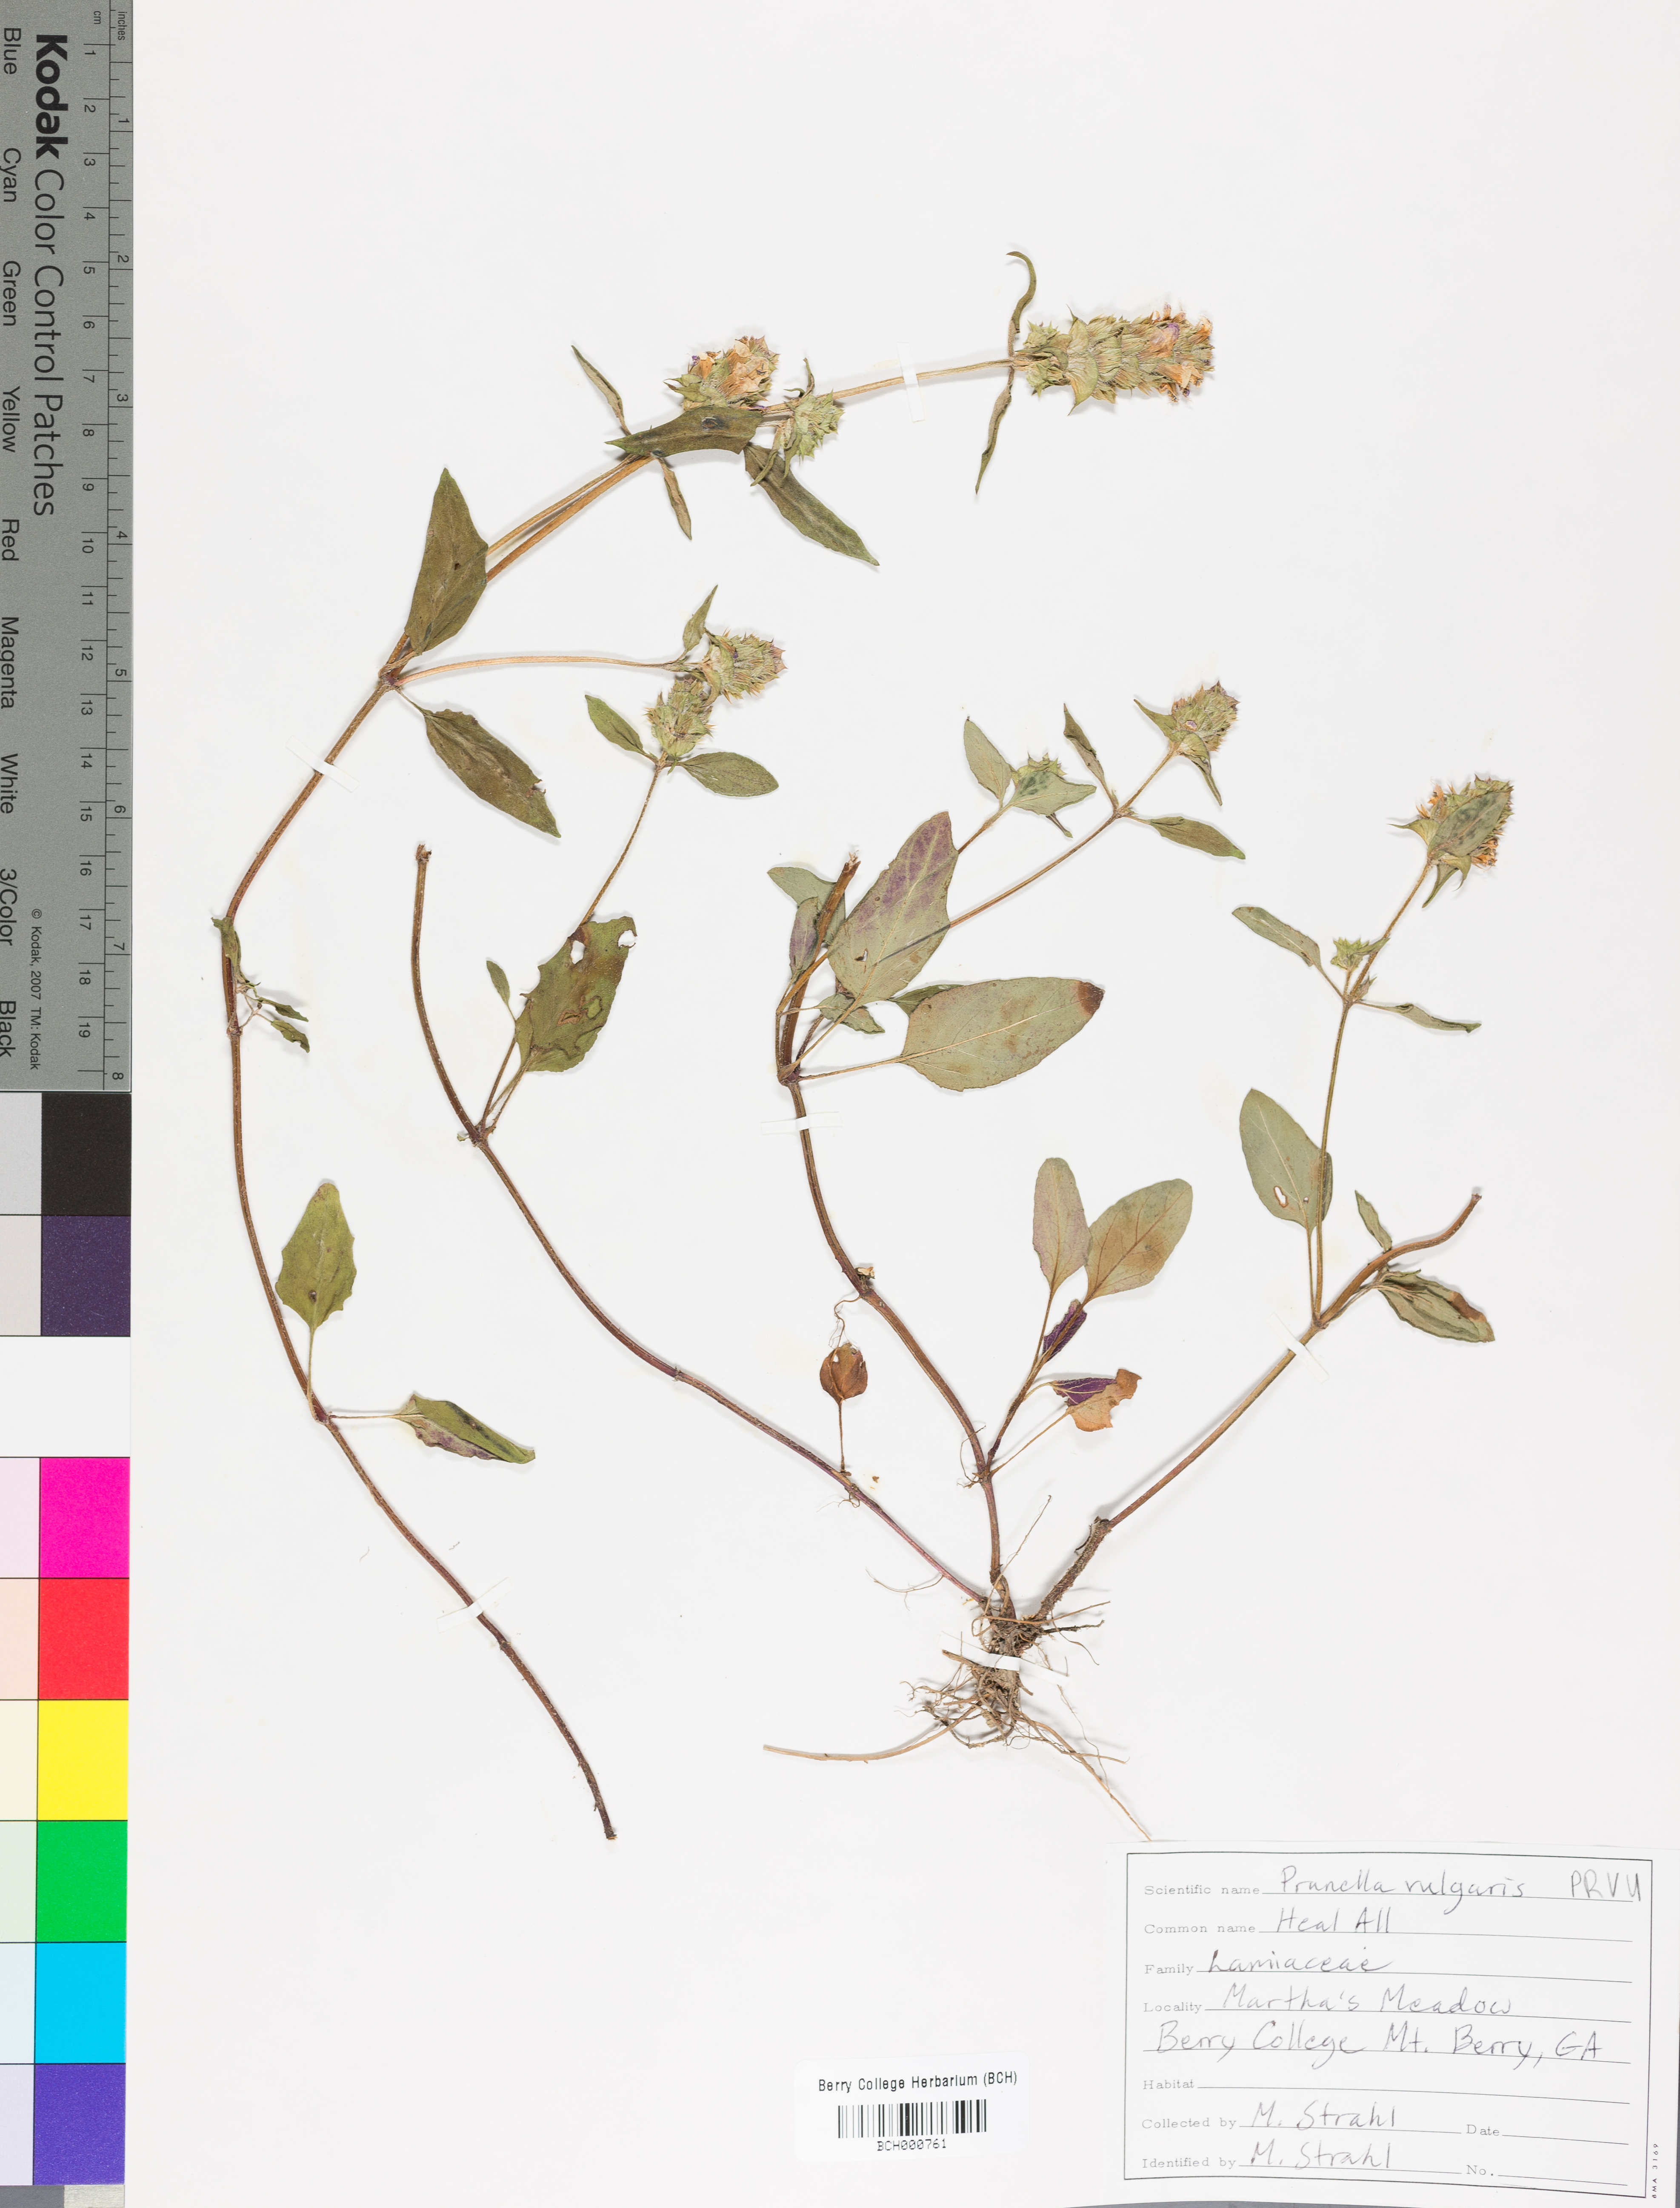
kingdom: Plantae
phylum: Tracheophyta
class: Magnoliopsida
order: Lamiales
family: Lamiaceae
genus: Prunella
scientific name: Prunella vulgaris
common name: Heal-all
